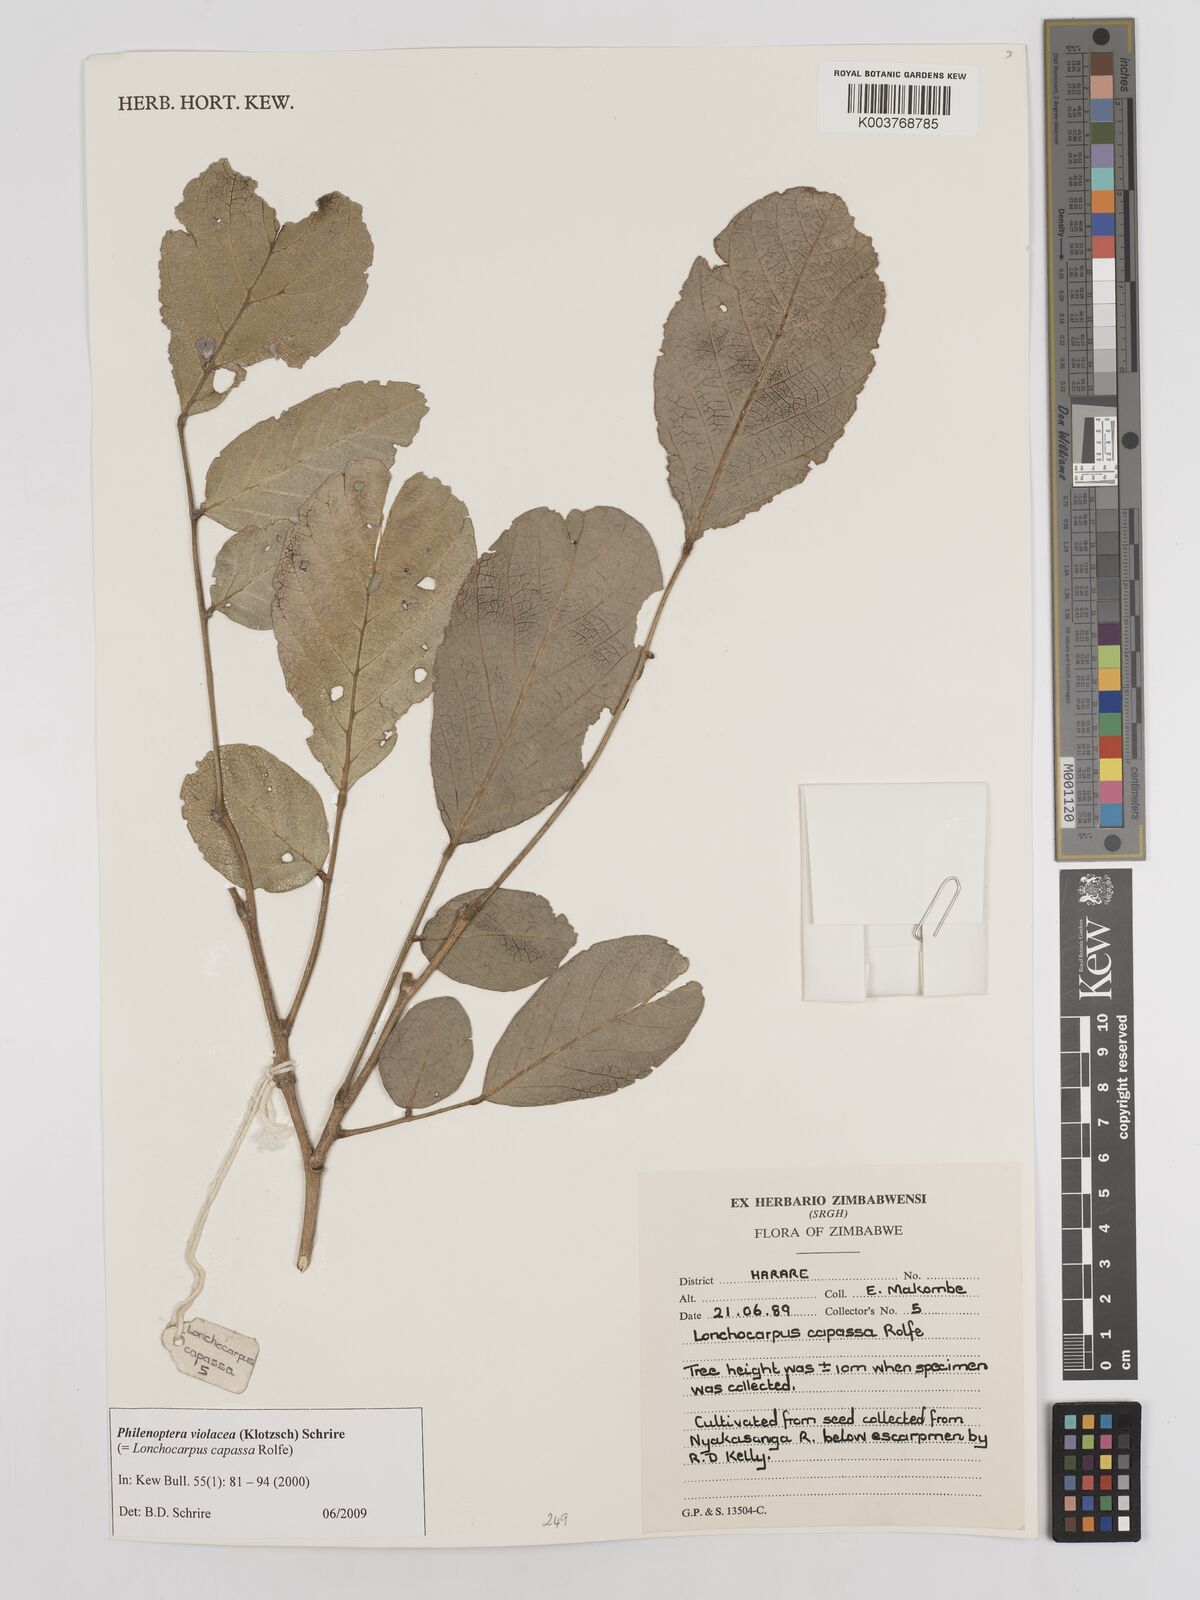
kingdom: Plantae
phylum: Tracheophyta
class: Magnoliopsida
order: Fabales
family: Fabaceae
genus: Philenoptera
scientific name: Philenoptera violacea
